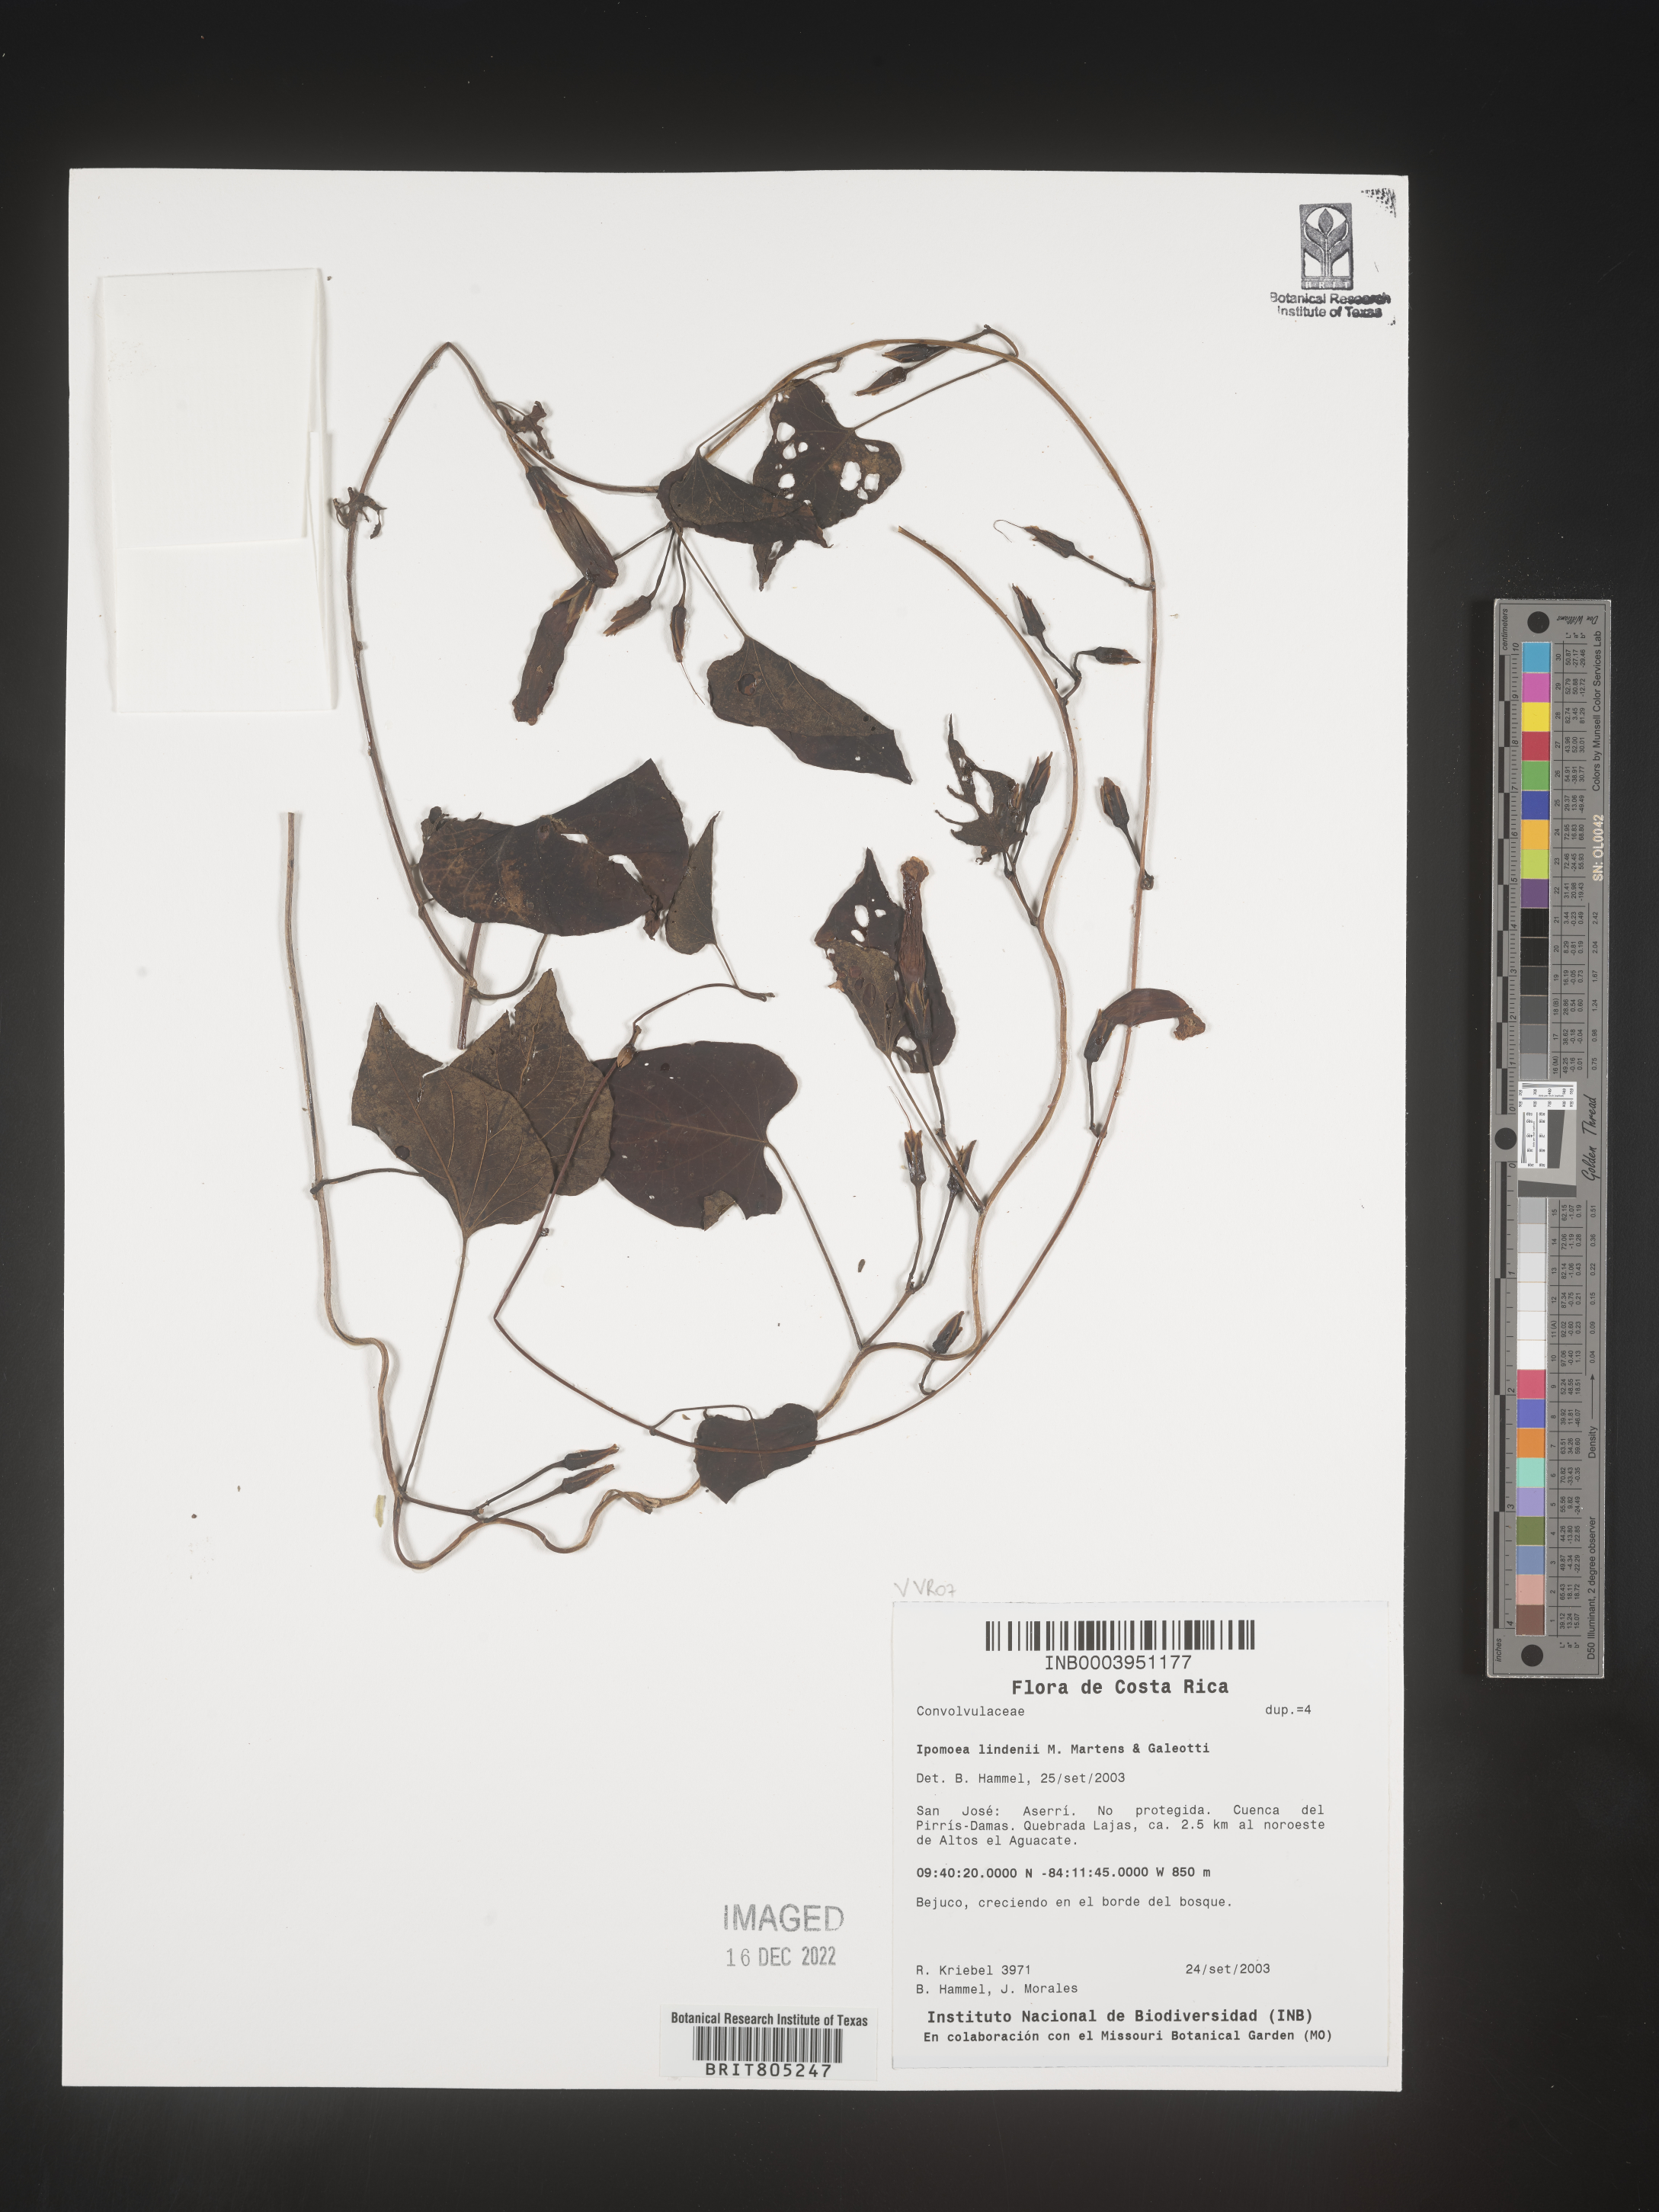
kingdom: Plantae
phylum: Tracheophyta
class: Magnoliopsida
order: Solanales
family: Convolvulaceae
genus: Ipomoea
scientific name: Ipomoea
